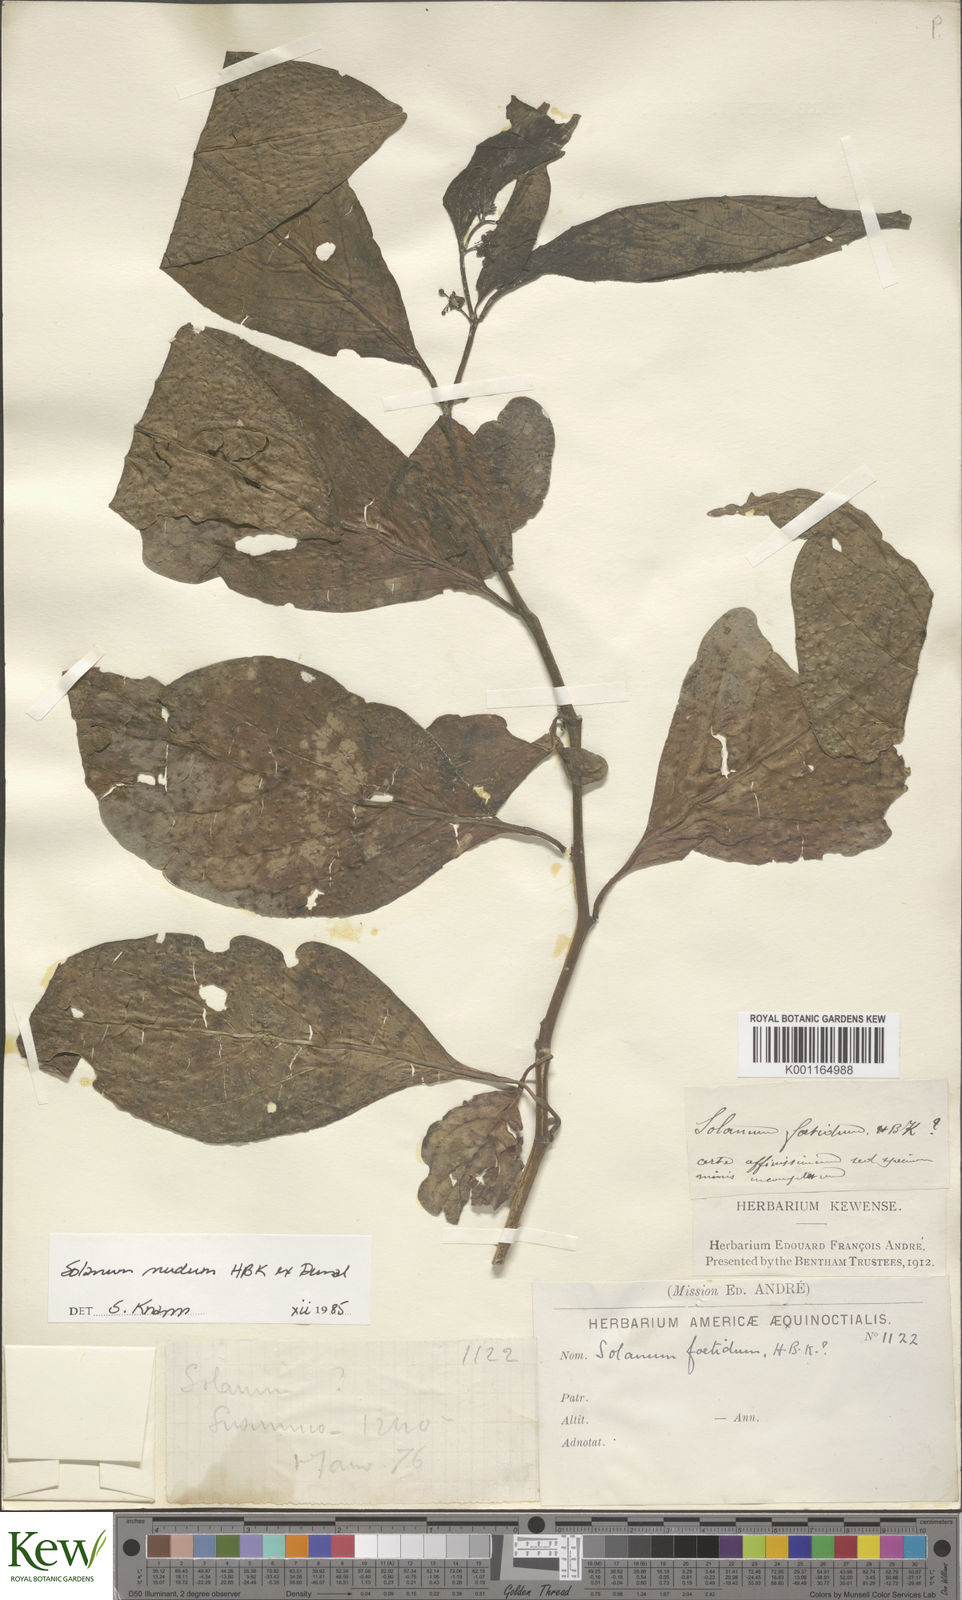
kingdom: Plantae
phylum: Tracheophyta
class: Magnoliopsida
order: Solanales
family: Solanaceae
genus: Solanum
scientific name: Solanum nudum
